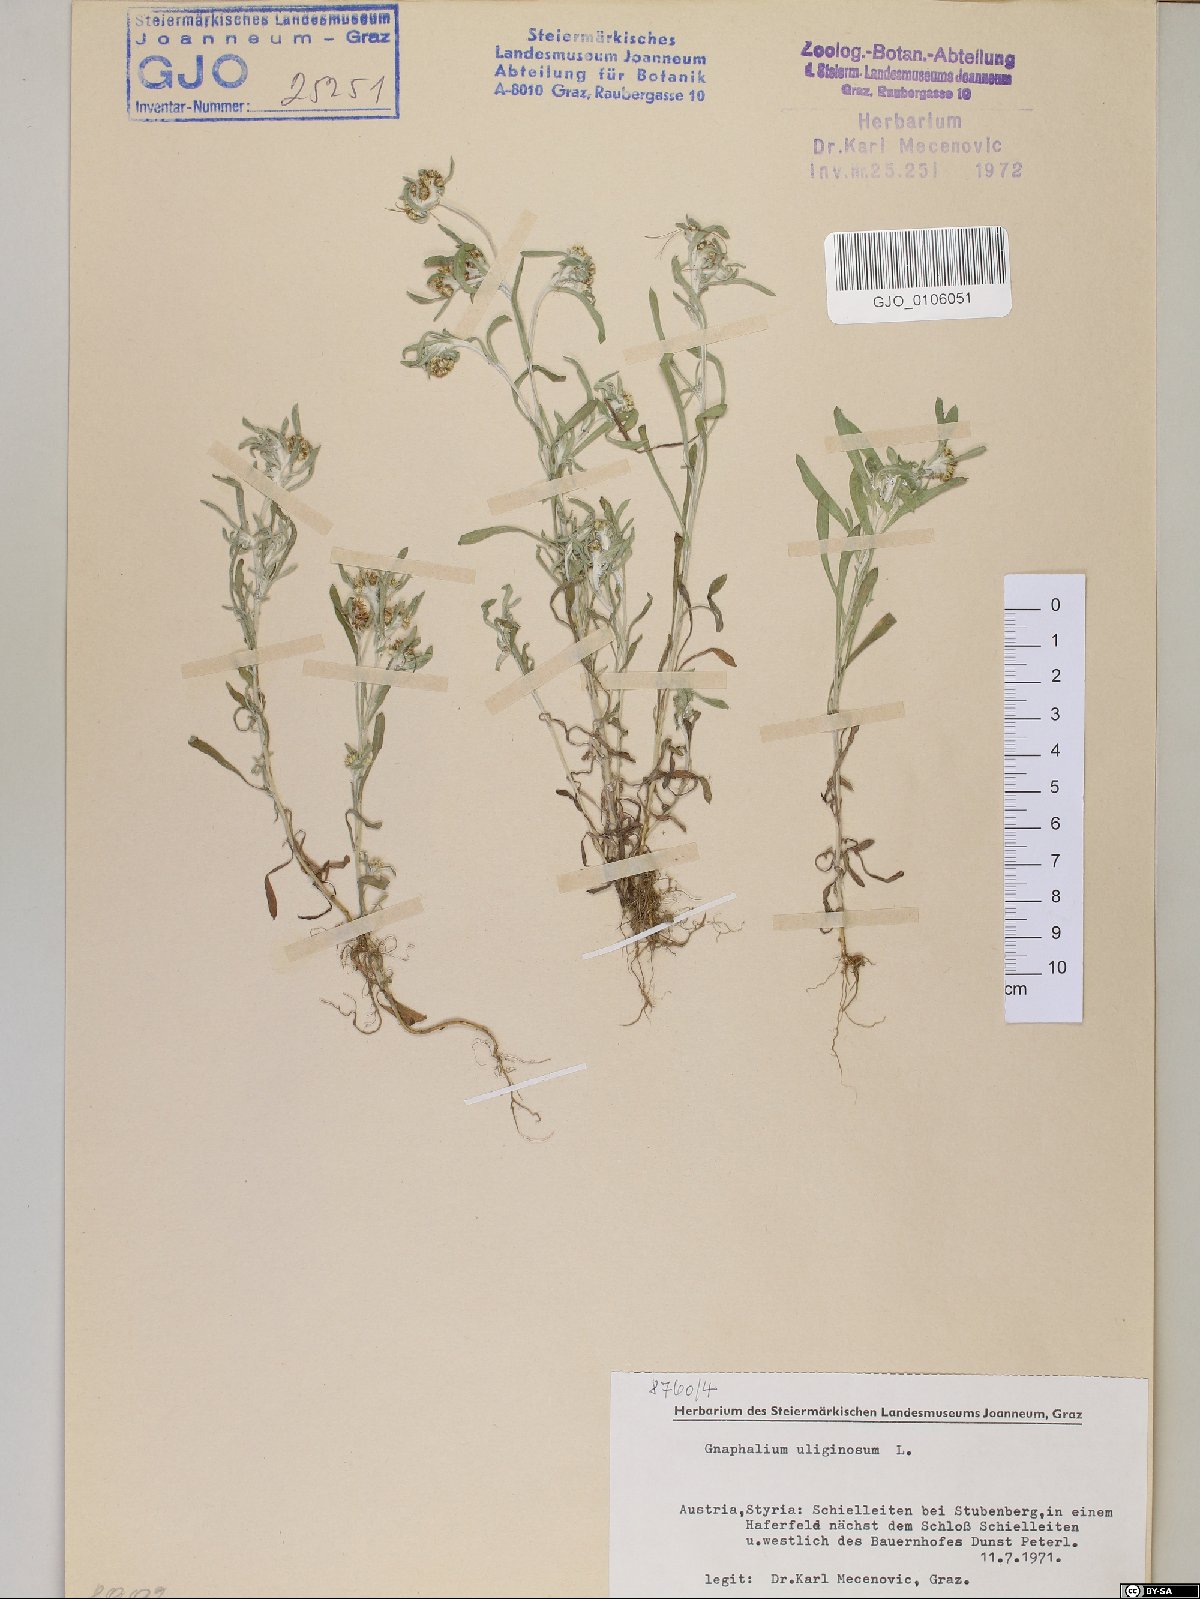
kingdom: Plantae
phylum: Tracheophyta
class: Magnoliopsida
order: Asterales
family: Asteraceae
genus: Gnaphalium
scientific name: Gnaphalium uliginosum
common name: Marsh cudweed
